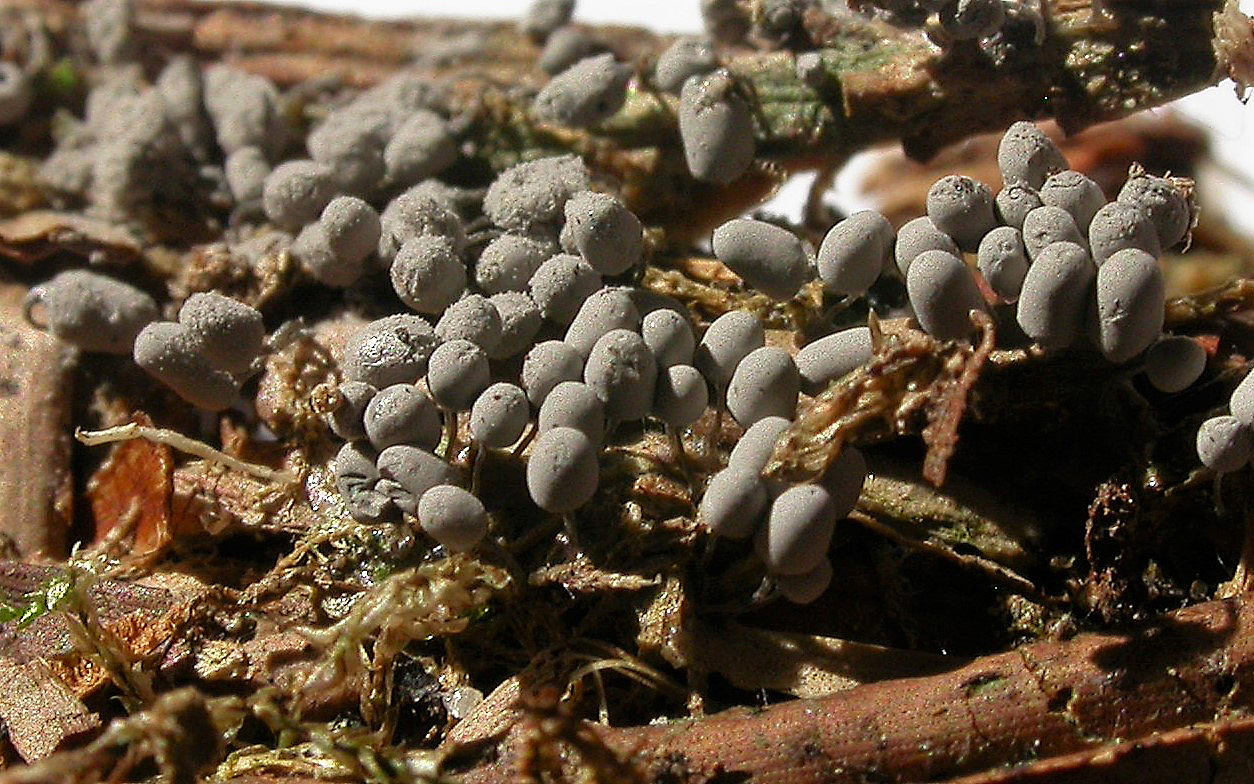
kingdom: Protozoa
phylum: Mycetozoa
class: Myxomycetes
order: Trichiales
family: Arcyriaceae
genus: Arcyria
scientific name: Arcyria cinerea
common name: White carnival candy slime mold
